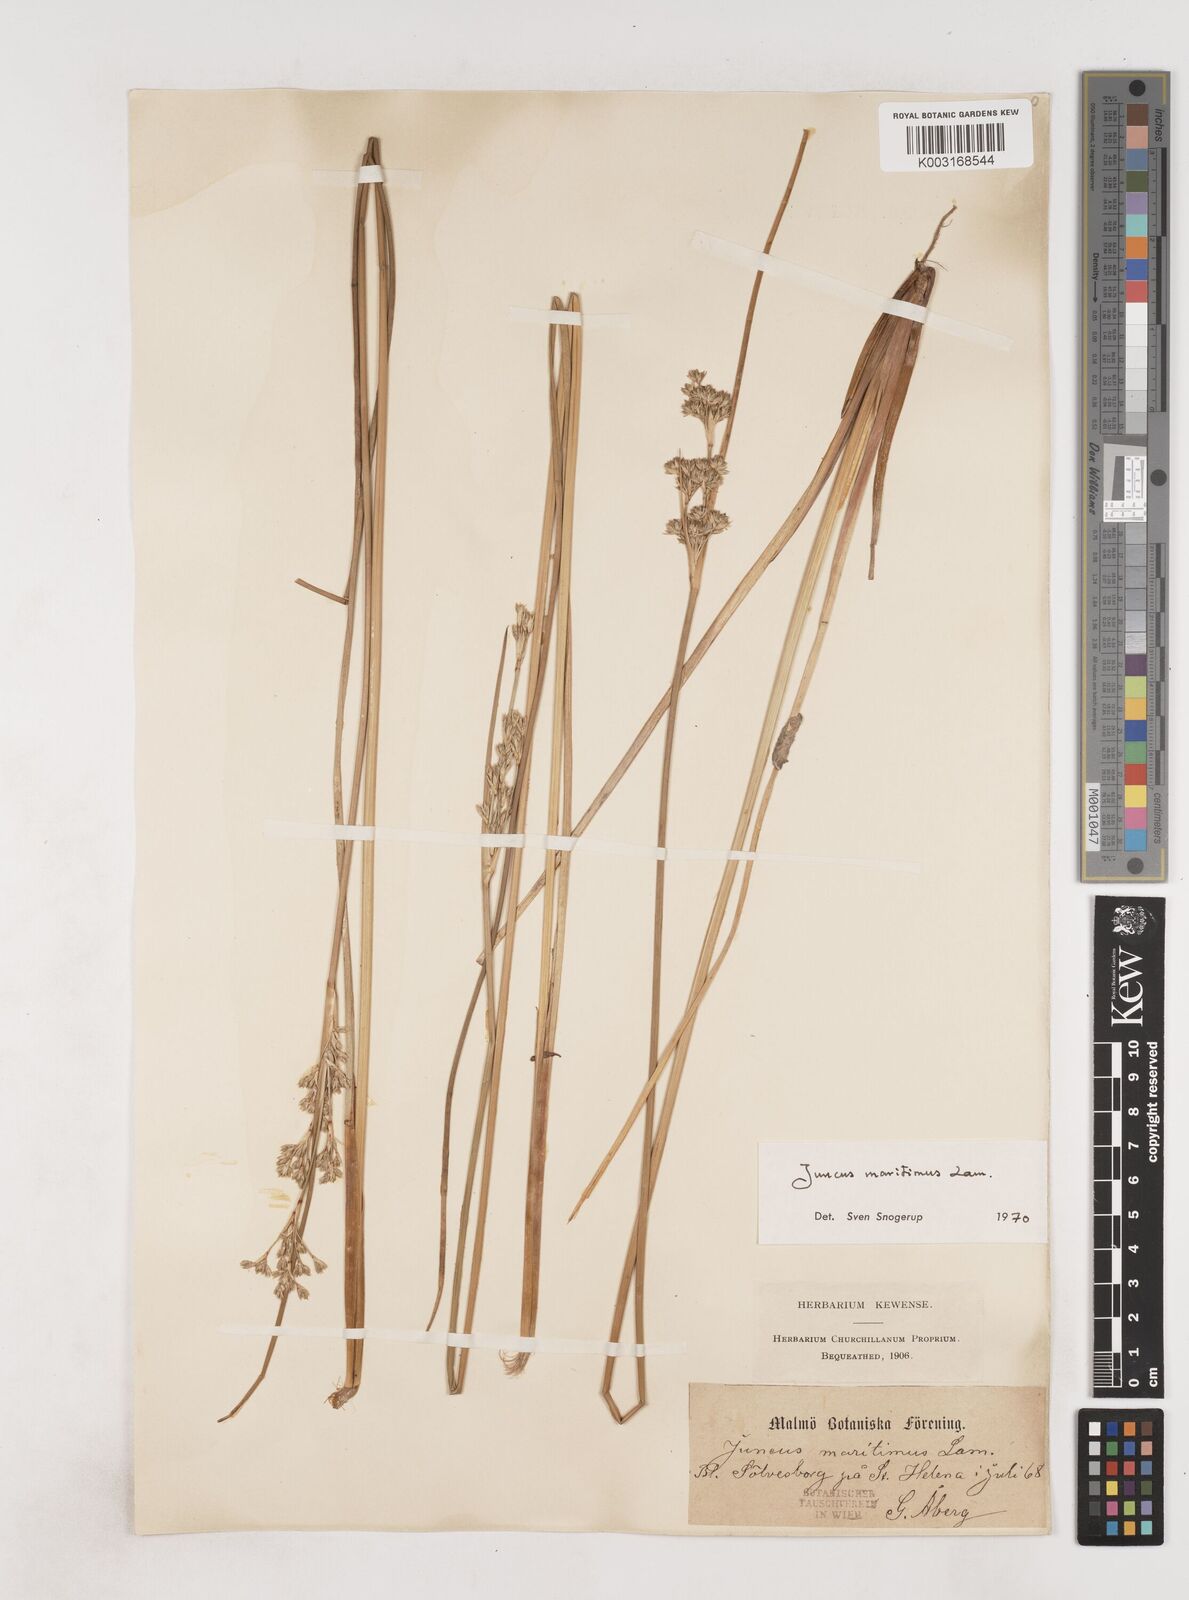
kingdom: Plantae
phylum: Tracheophyta
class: Liliopsida
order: Poales
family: Juncaceae
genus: Juncus
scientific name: Juncus maritimus
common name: Sea rush
